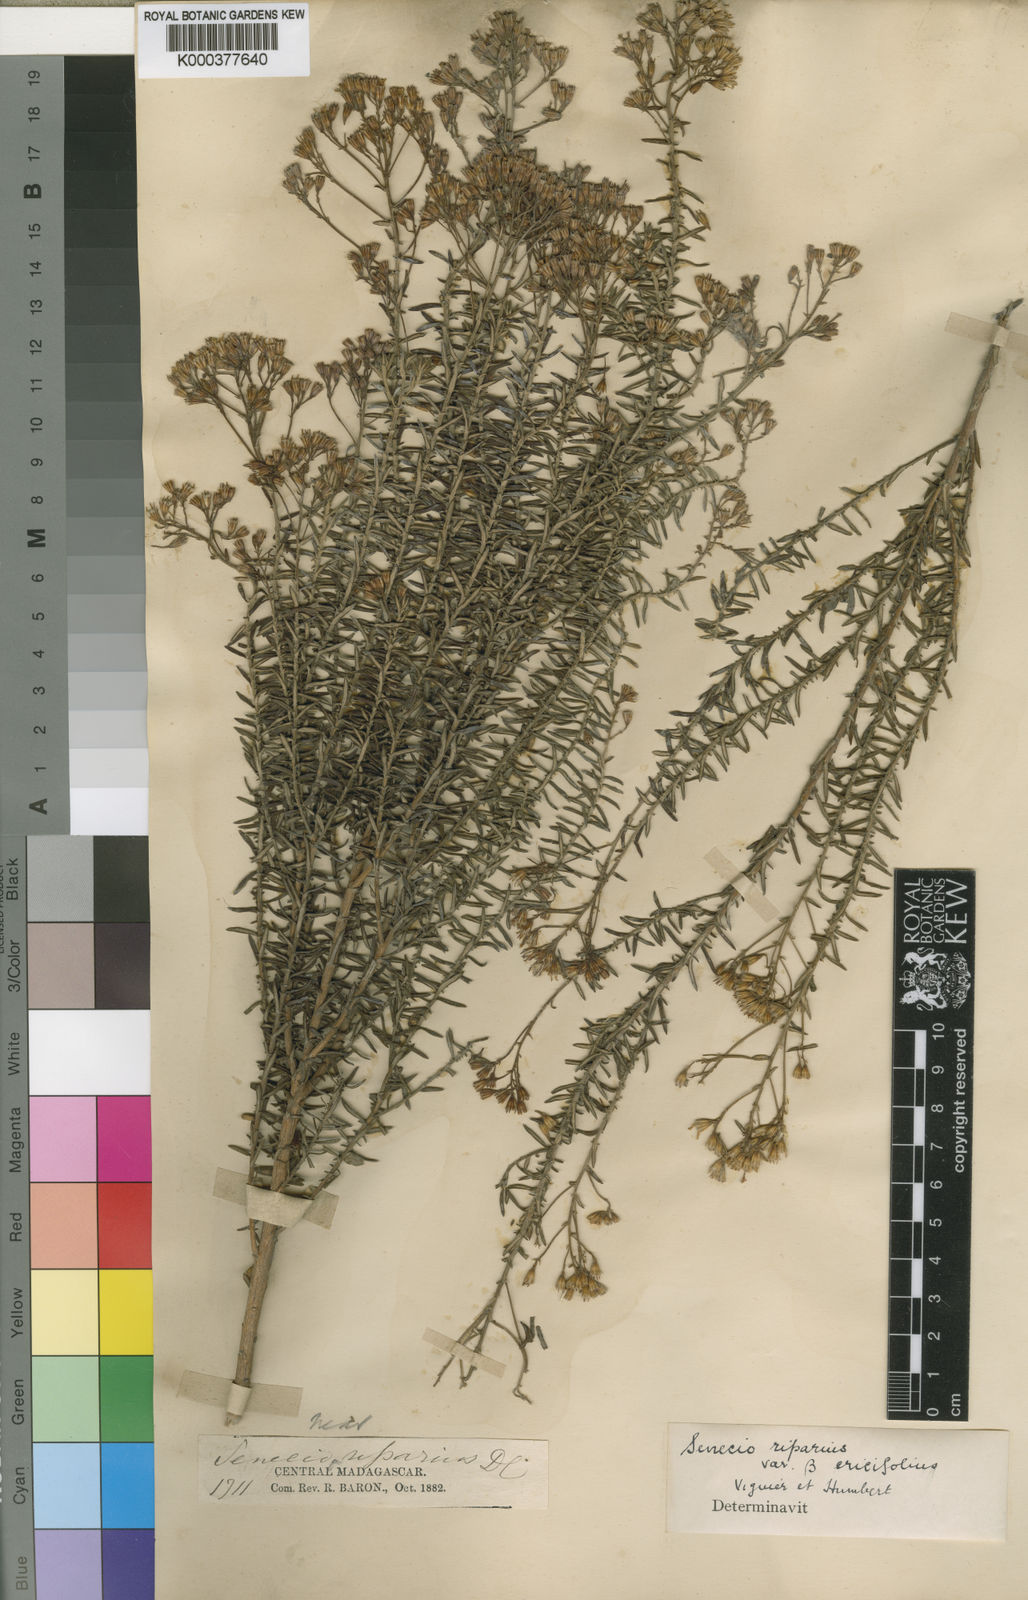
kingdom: Plantae
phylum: Tracheophyta
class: Magnoliopsida
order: Asterales
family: Asteraceae
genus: Hubertia
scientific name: Hubertia riparia
